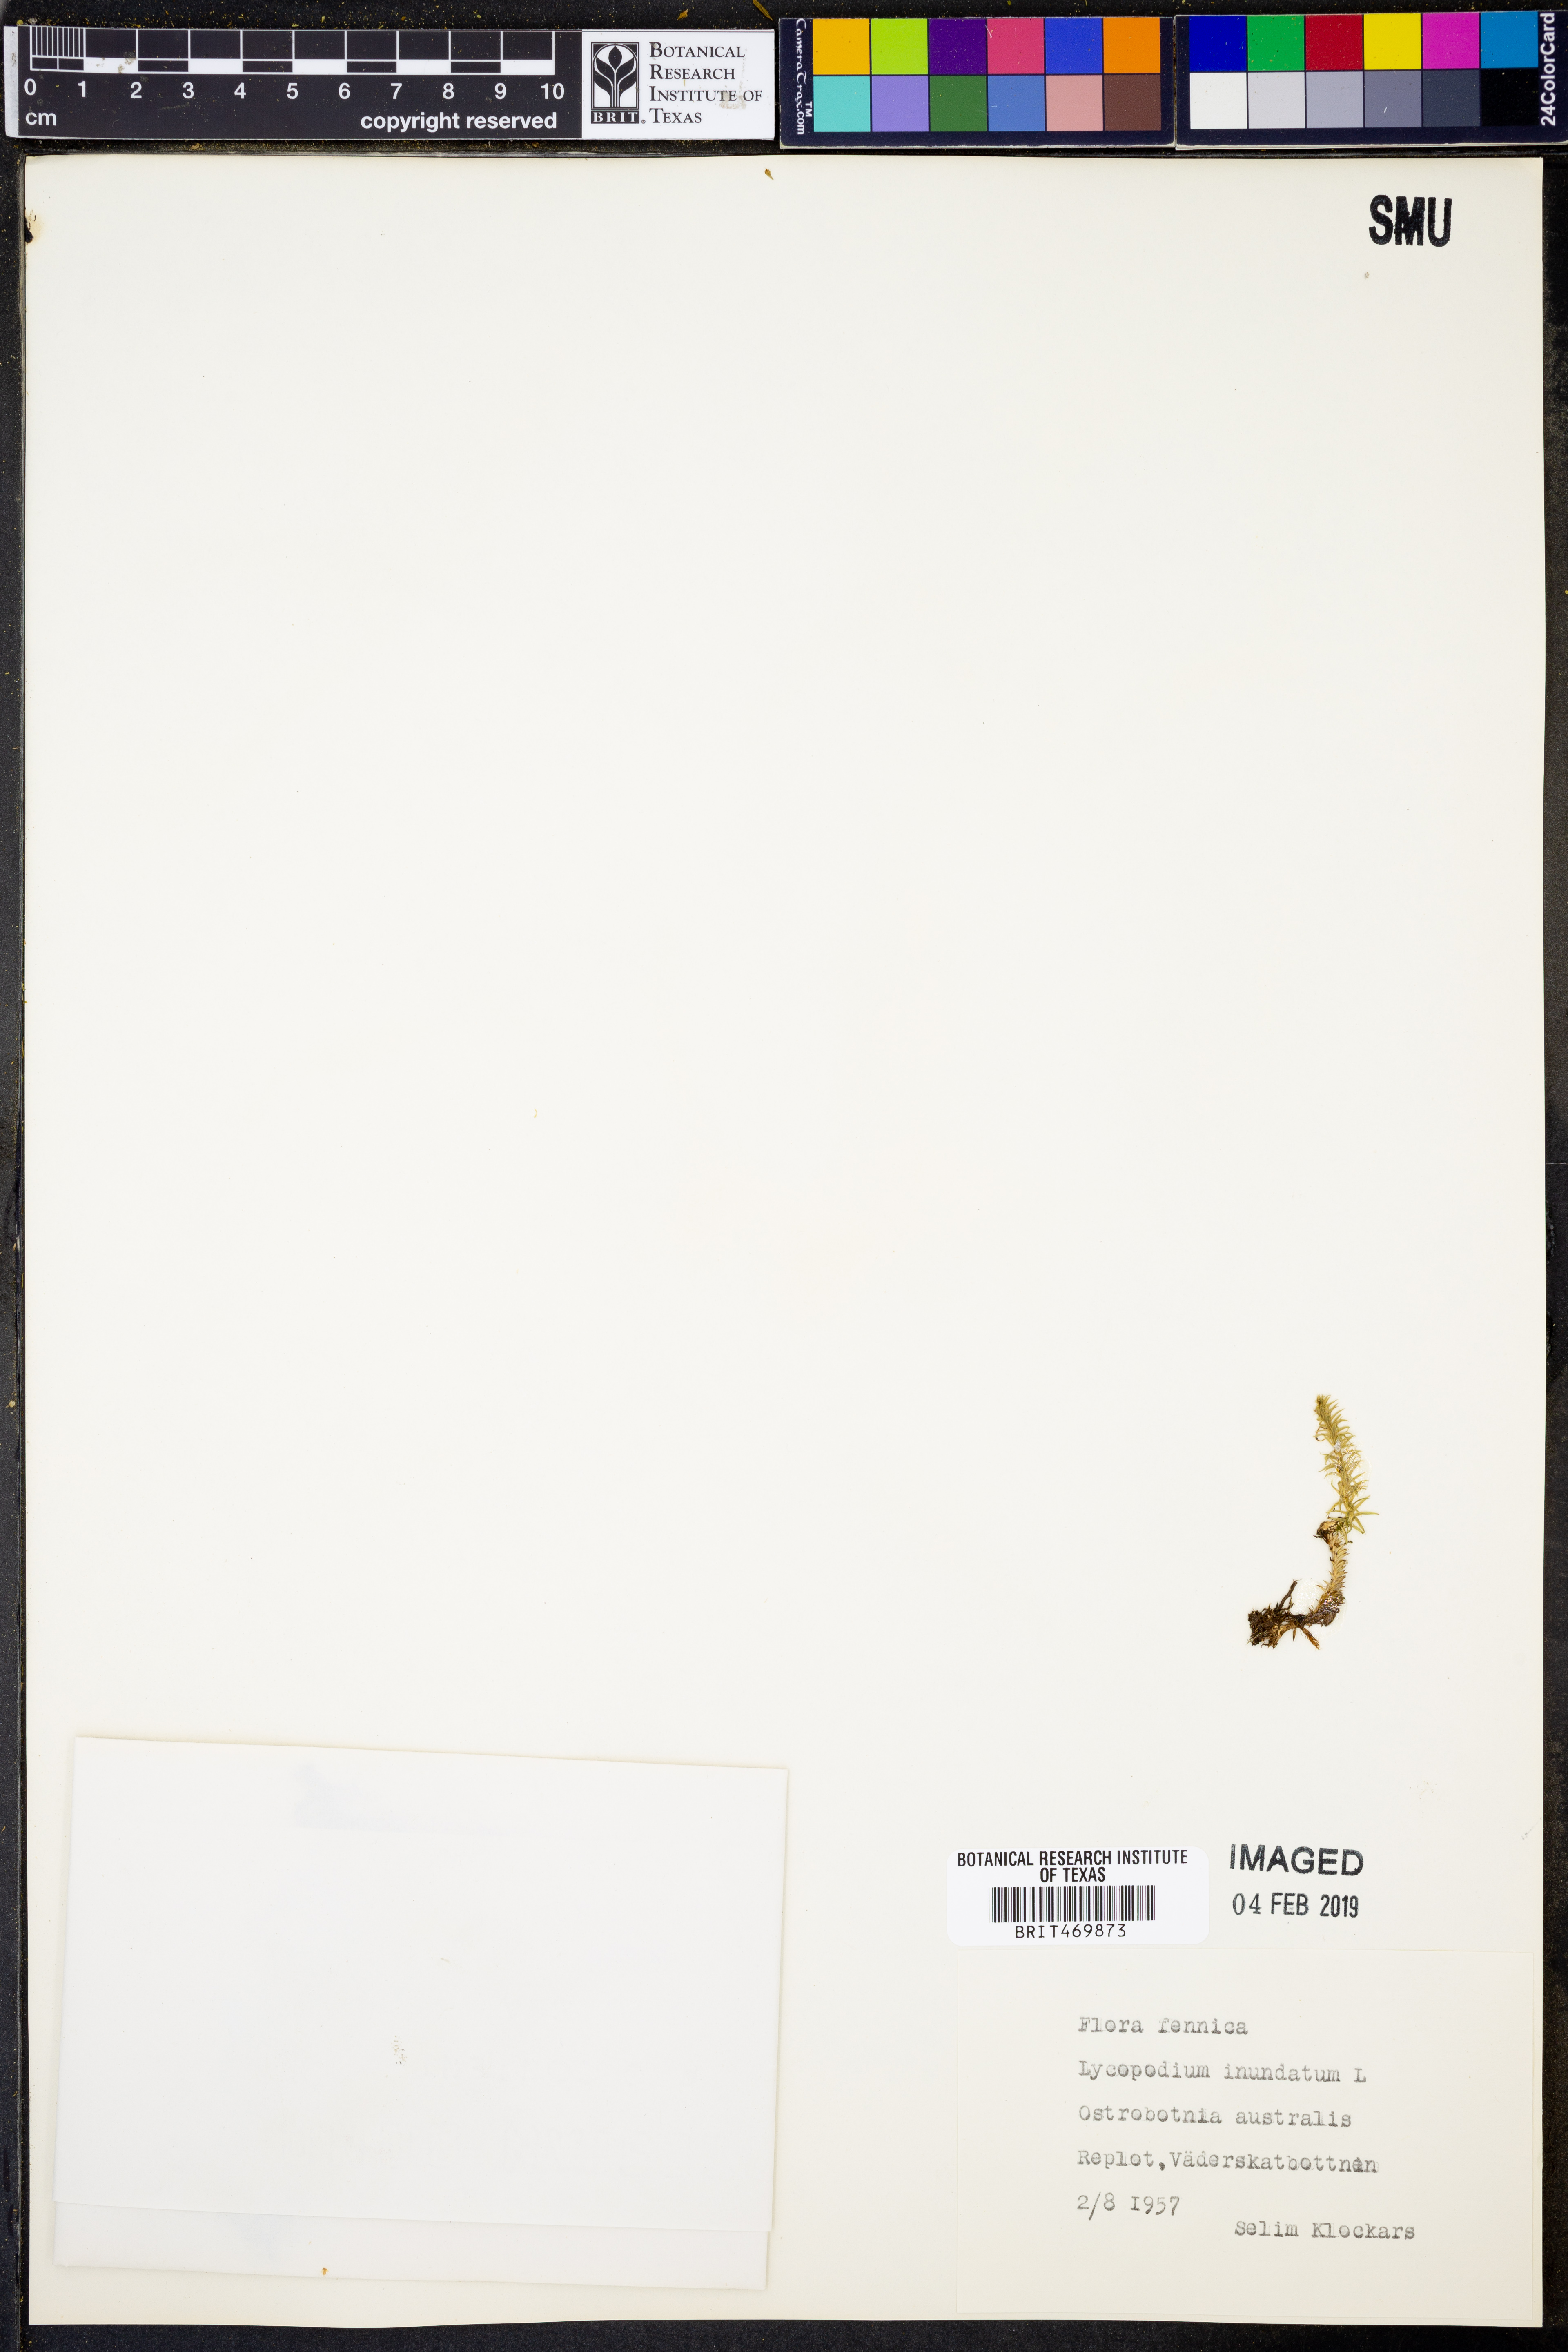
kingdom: Plantae
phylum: Tracheophyta
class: Lycopodiopsida
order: Lycopodiales
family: Lycopodiaceae
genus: Lycopodiella
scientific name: Lycopodiella inundata
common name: Marsh clubmoss
